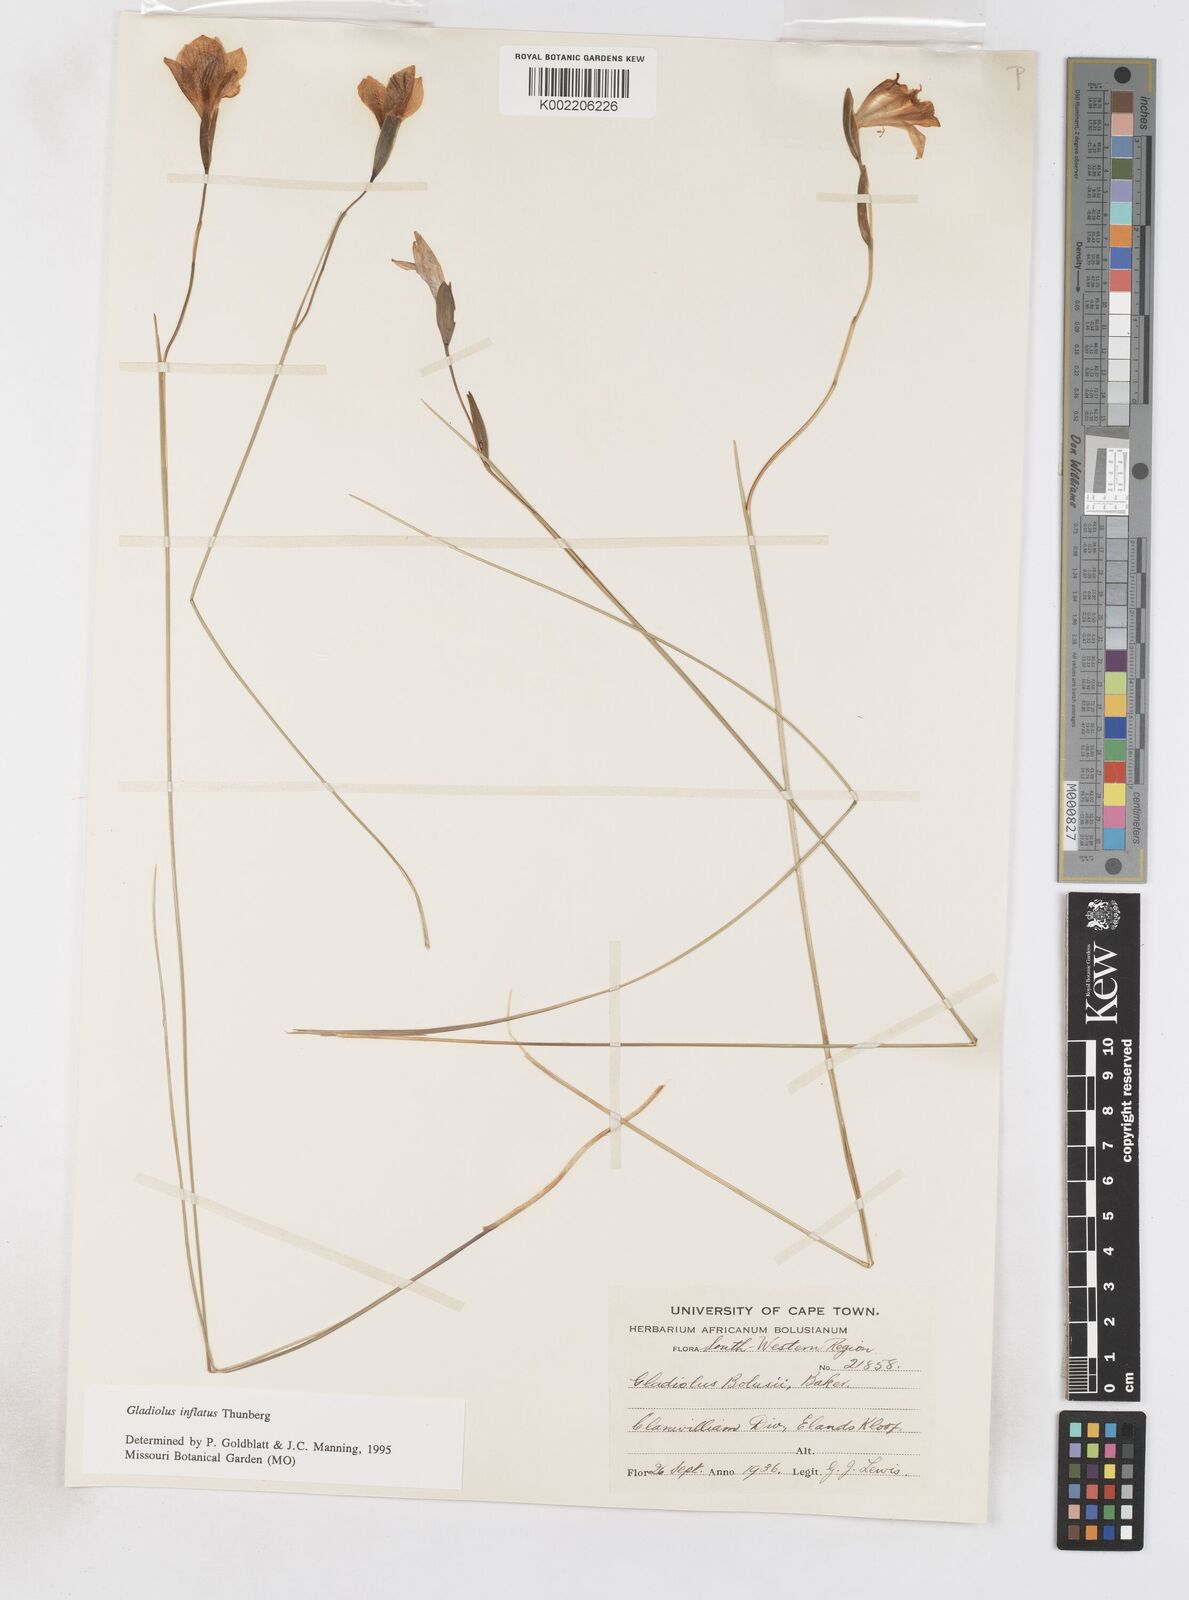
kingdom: Plantae
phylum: Tracheophyta
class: Liliopsida
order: Asparagales
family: Iridaceae
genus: Gladiolus
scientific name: Gladiolus inflatus
